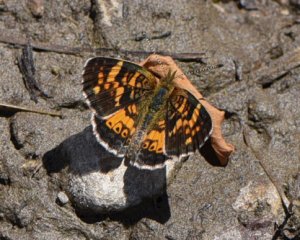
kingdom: Animalia
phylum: Arthropoda
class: Insecta
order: Lepidoptera
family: Nymphalidae
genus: Phyciodes
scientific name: Phyciodes batesii
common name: Tawny Crescent
